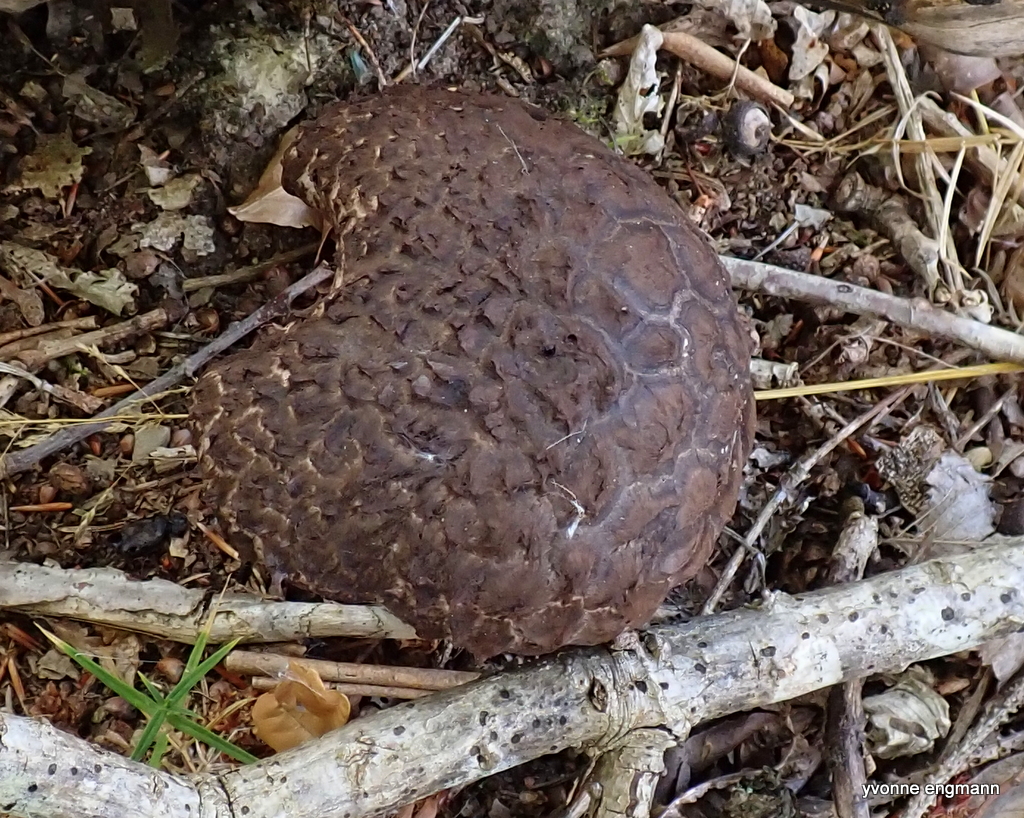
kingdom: Fungi
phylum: Basidiomycota
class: Agaricomycetes
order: Boletales
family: Boletaceae
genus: Strobilomyces
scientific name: Strobilomyces strobilaceus
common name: koglerørhat
